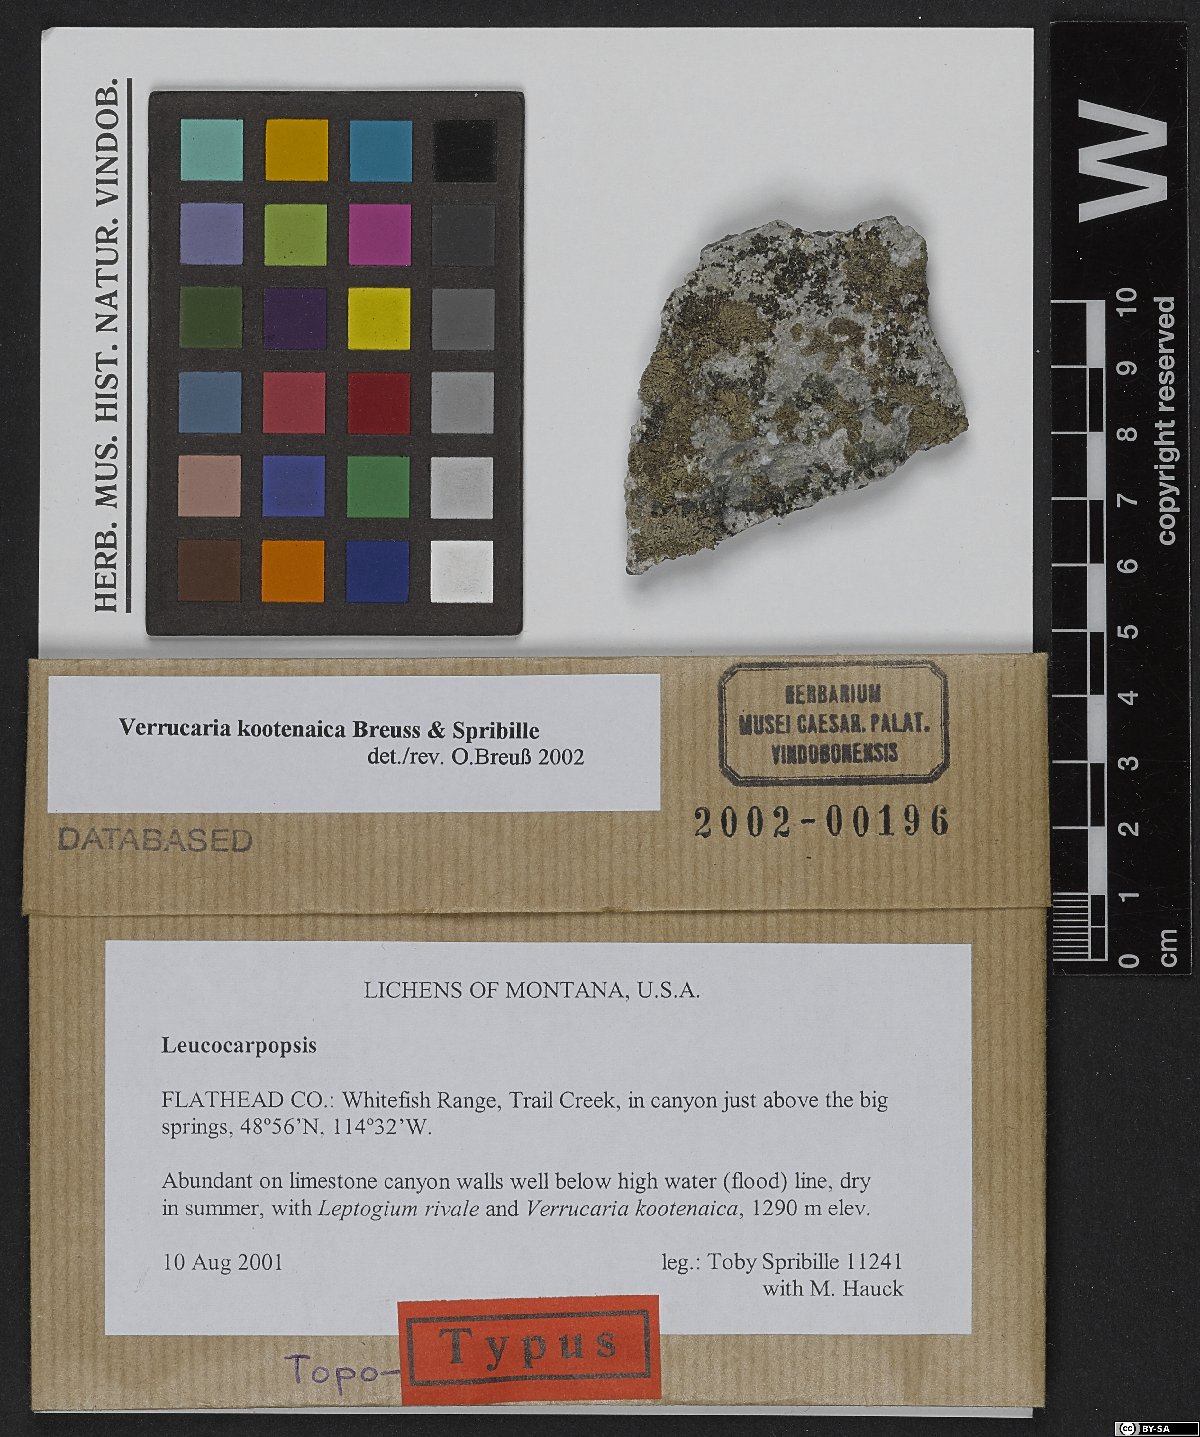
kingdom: Fungi
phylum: Ascomycota
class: Eurotiomycetes
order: Verrucariales
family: Verrucariaceae
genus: Verrucaria
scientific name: Verrucaria kootenaica
